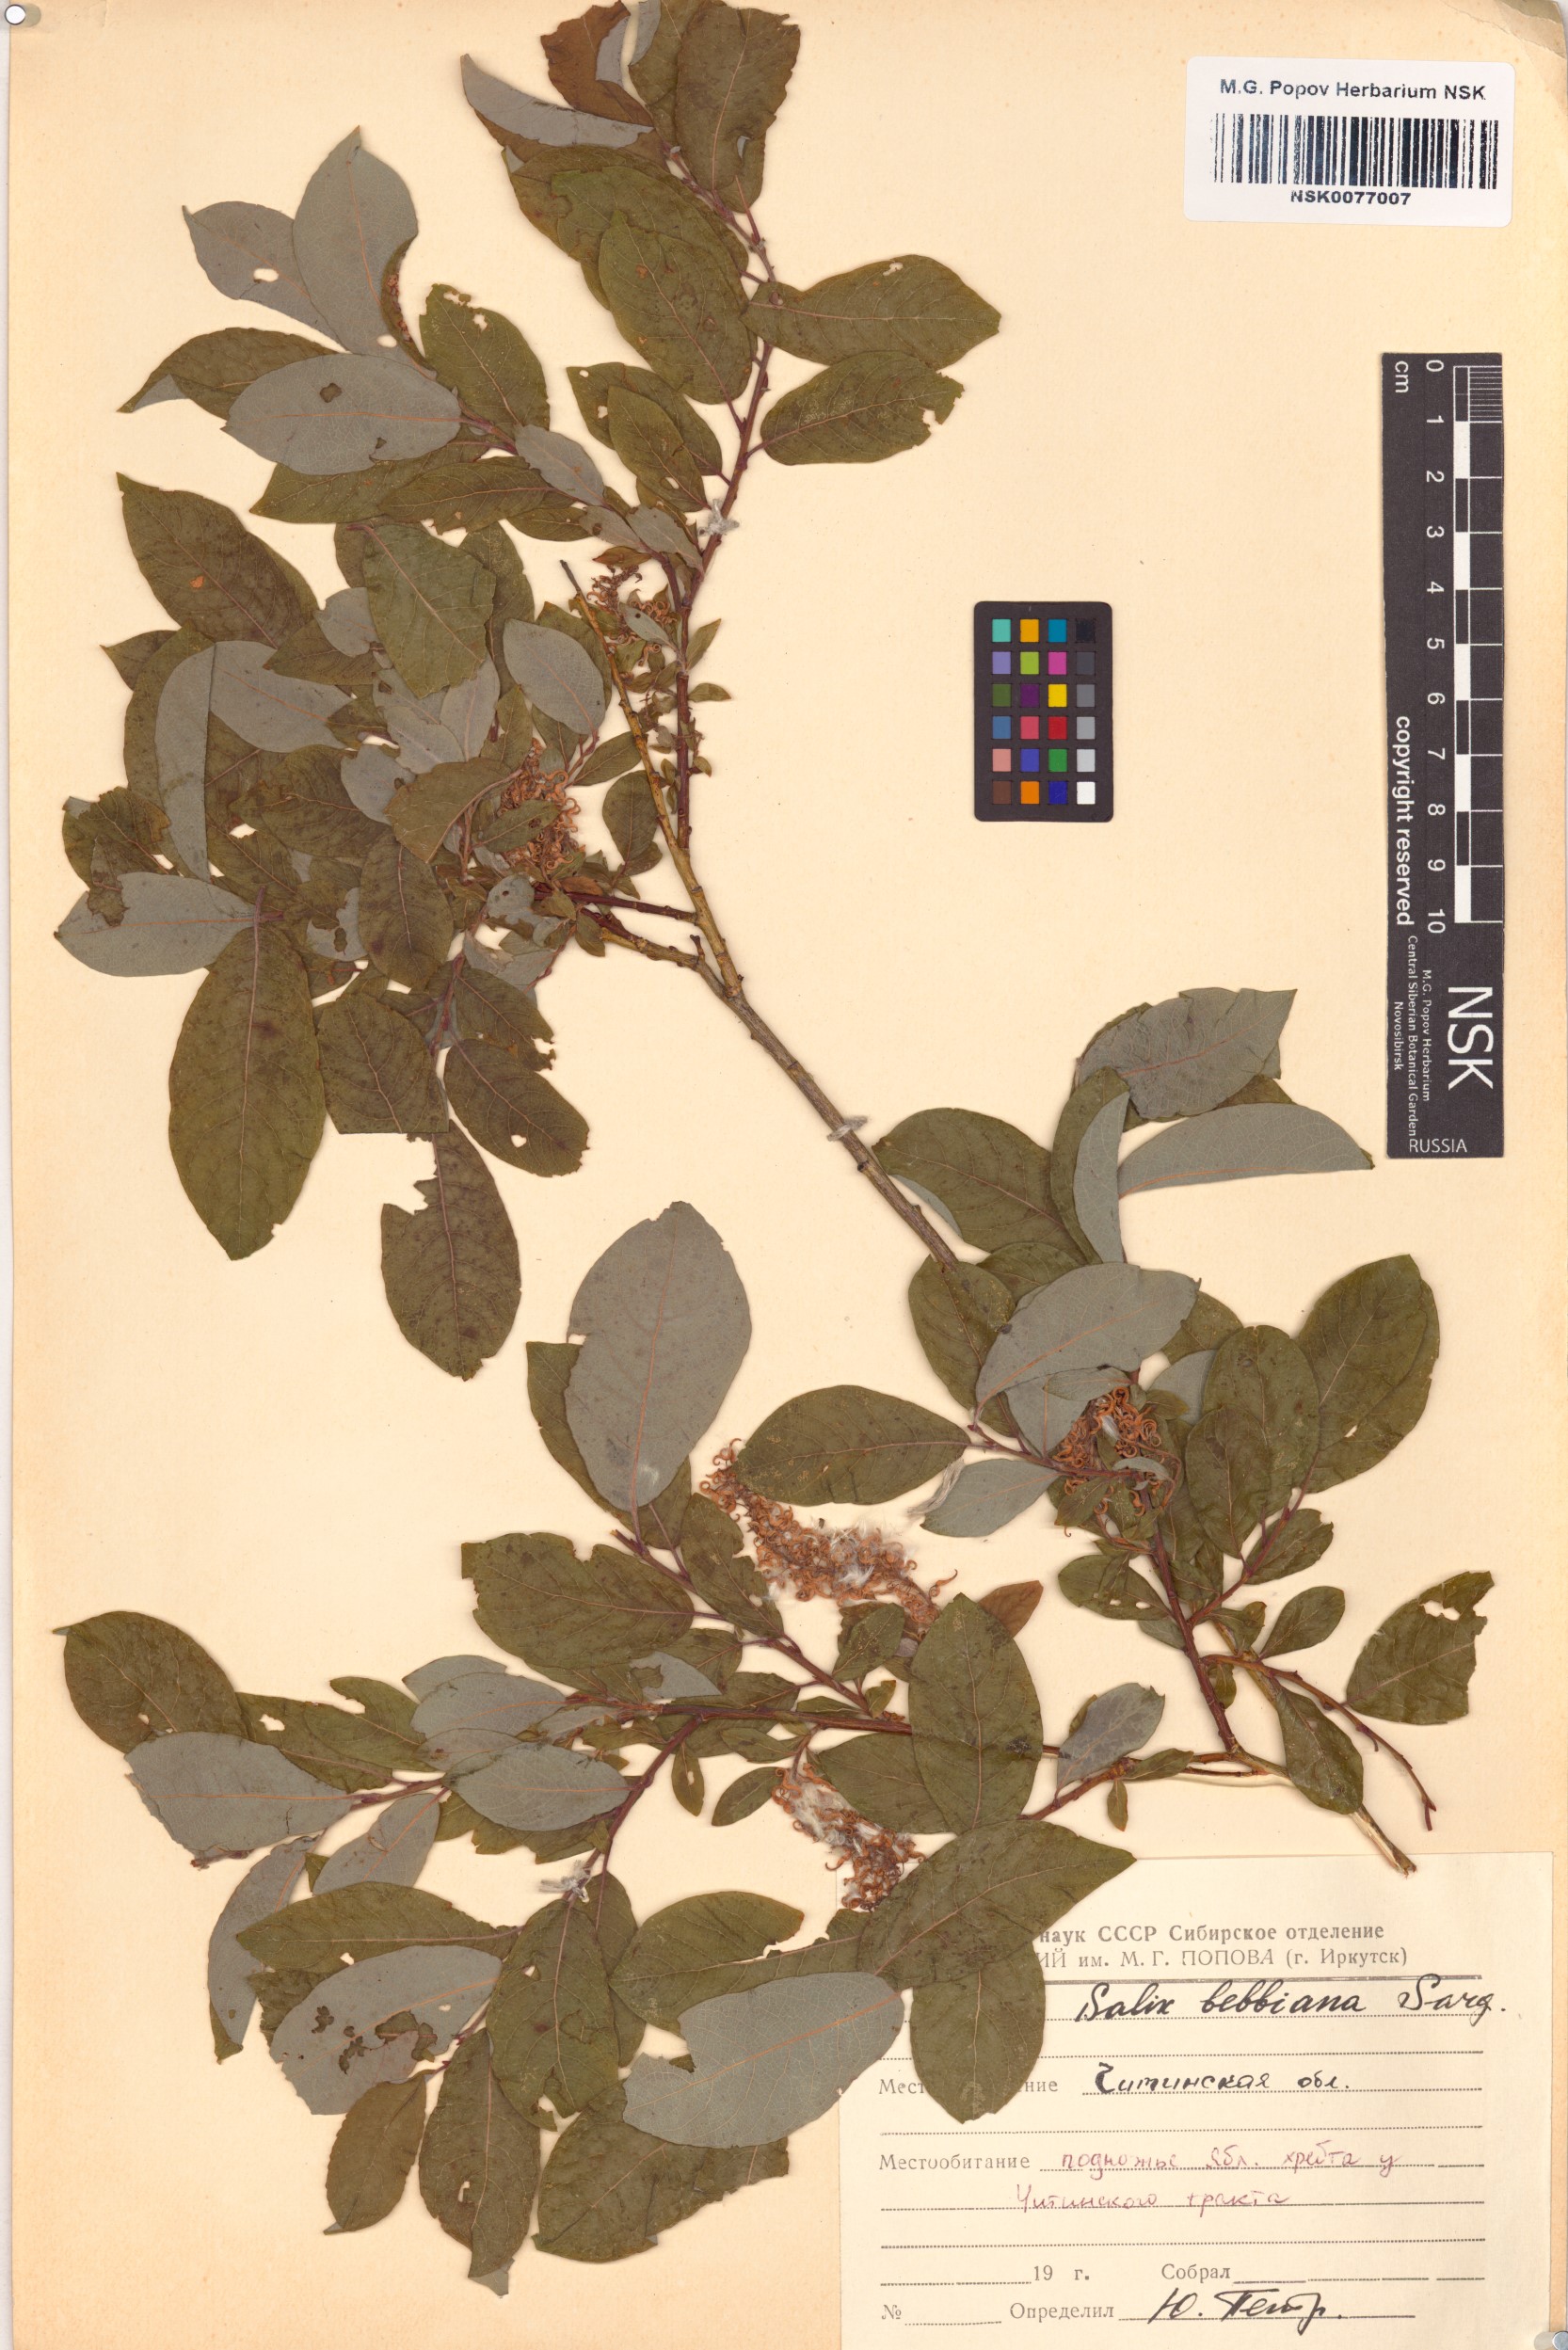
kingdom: Plantae
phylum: Tracheophyta
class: Magnoliopsida
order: Malpighiales
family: Salicaceae
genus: Salix
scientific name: Salix bebbiana
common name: Bebb's willow
